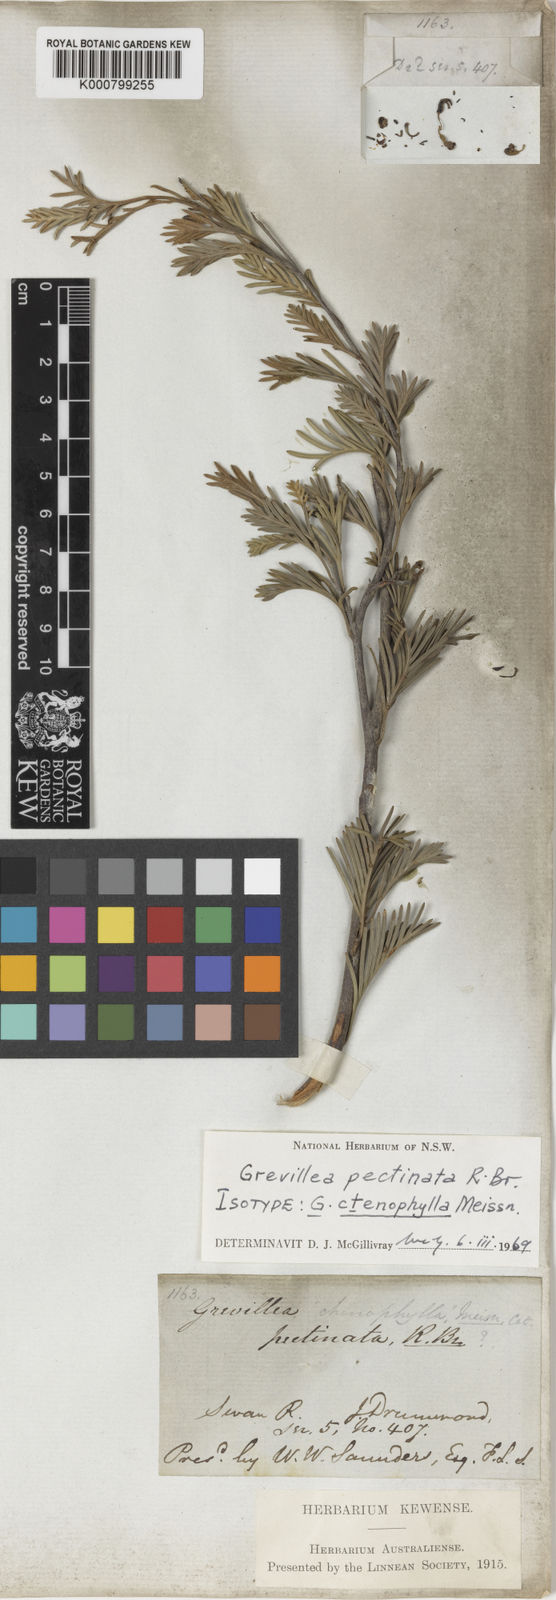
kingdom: Plantae
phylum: Tracheophyta
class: Magnoliopsida
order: Proteales
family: Proteaceae
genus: Grevillea
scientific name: Grevillea pectinata
